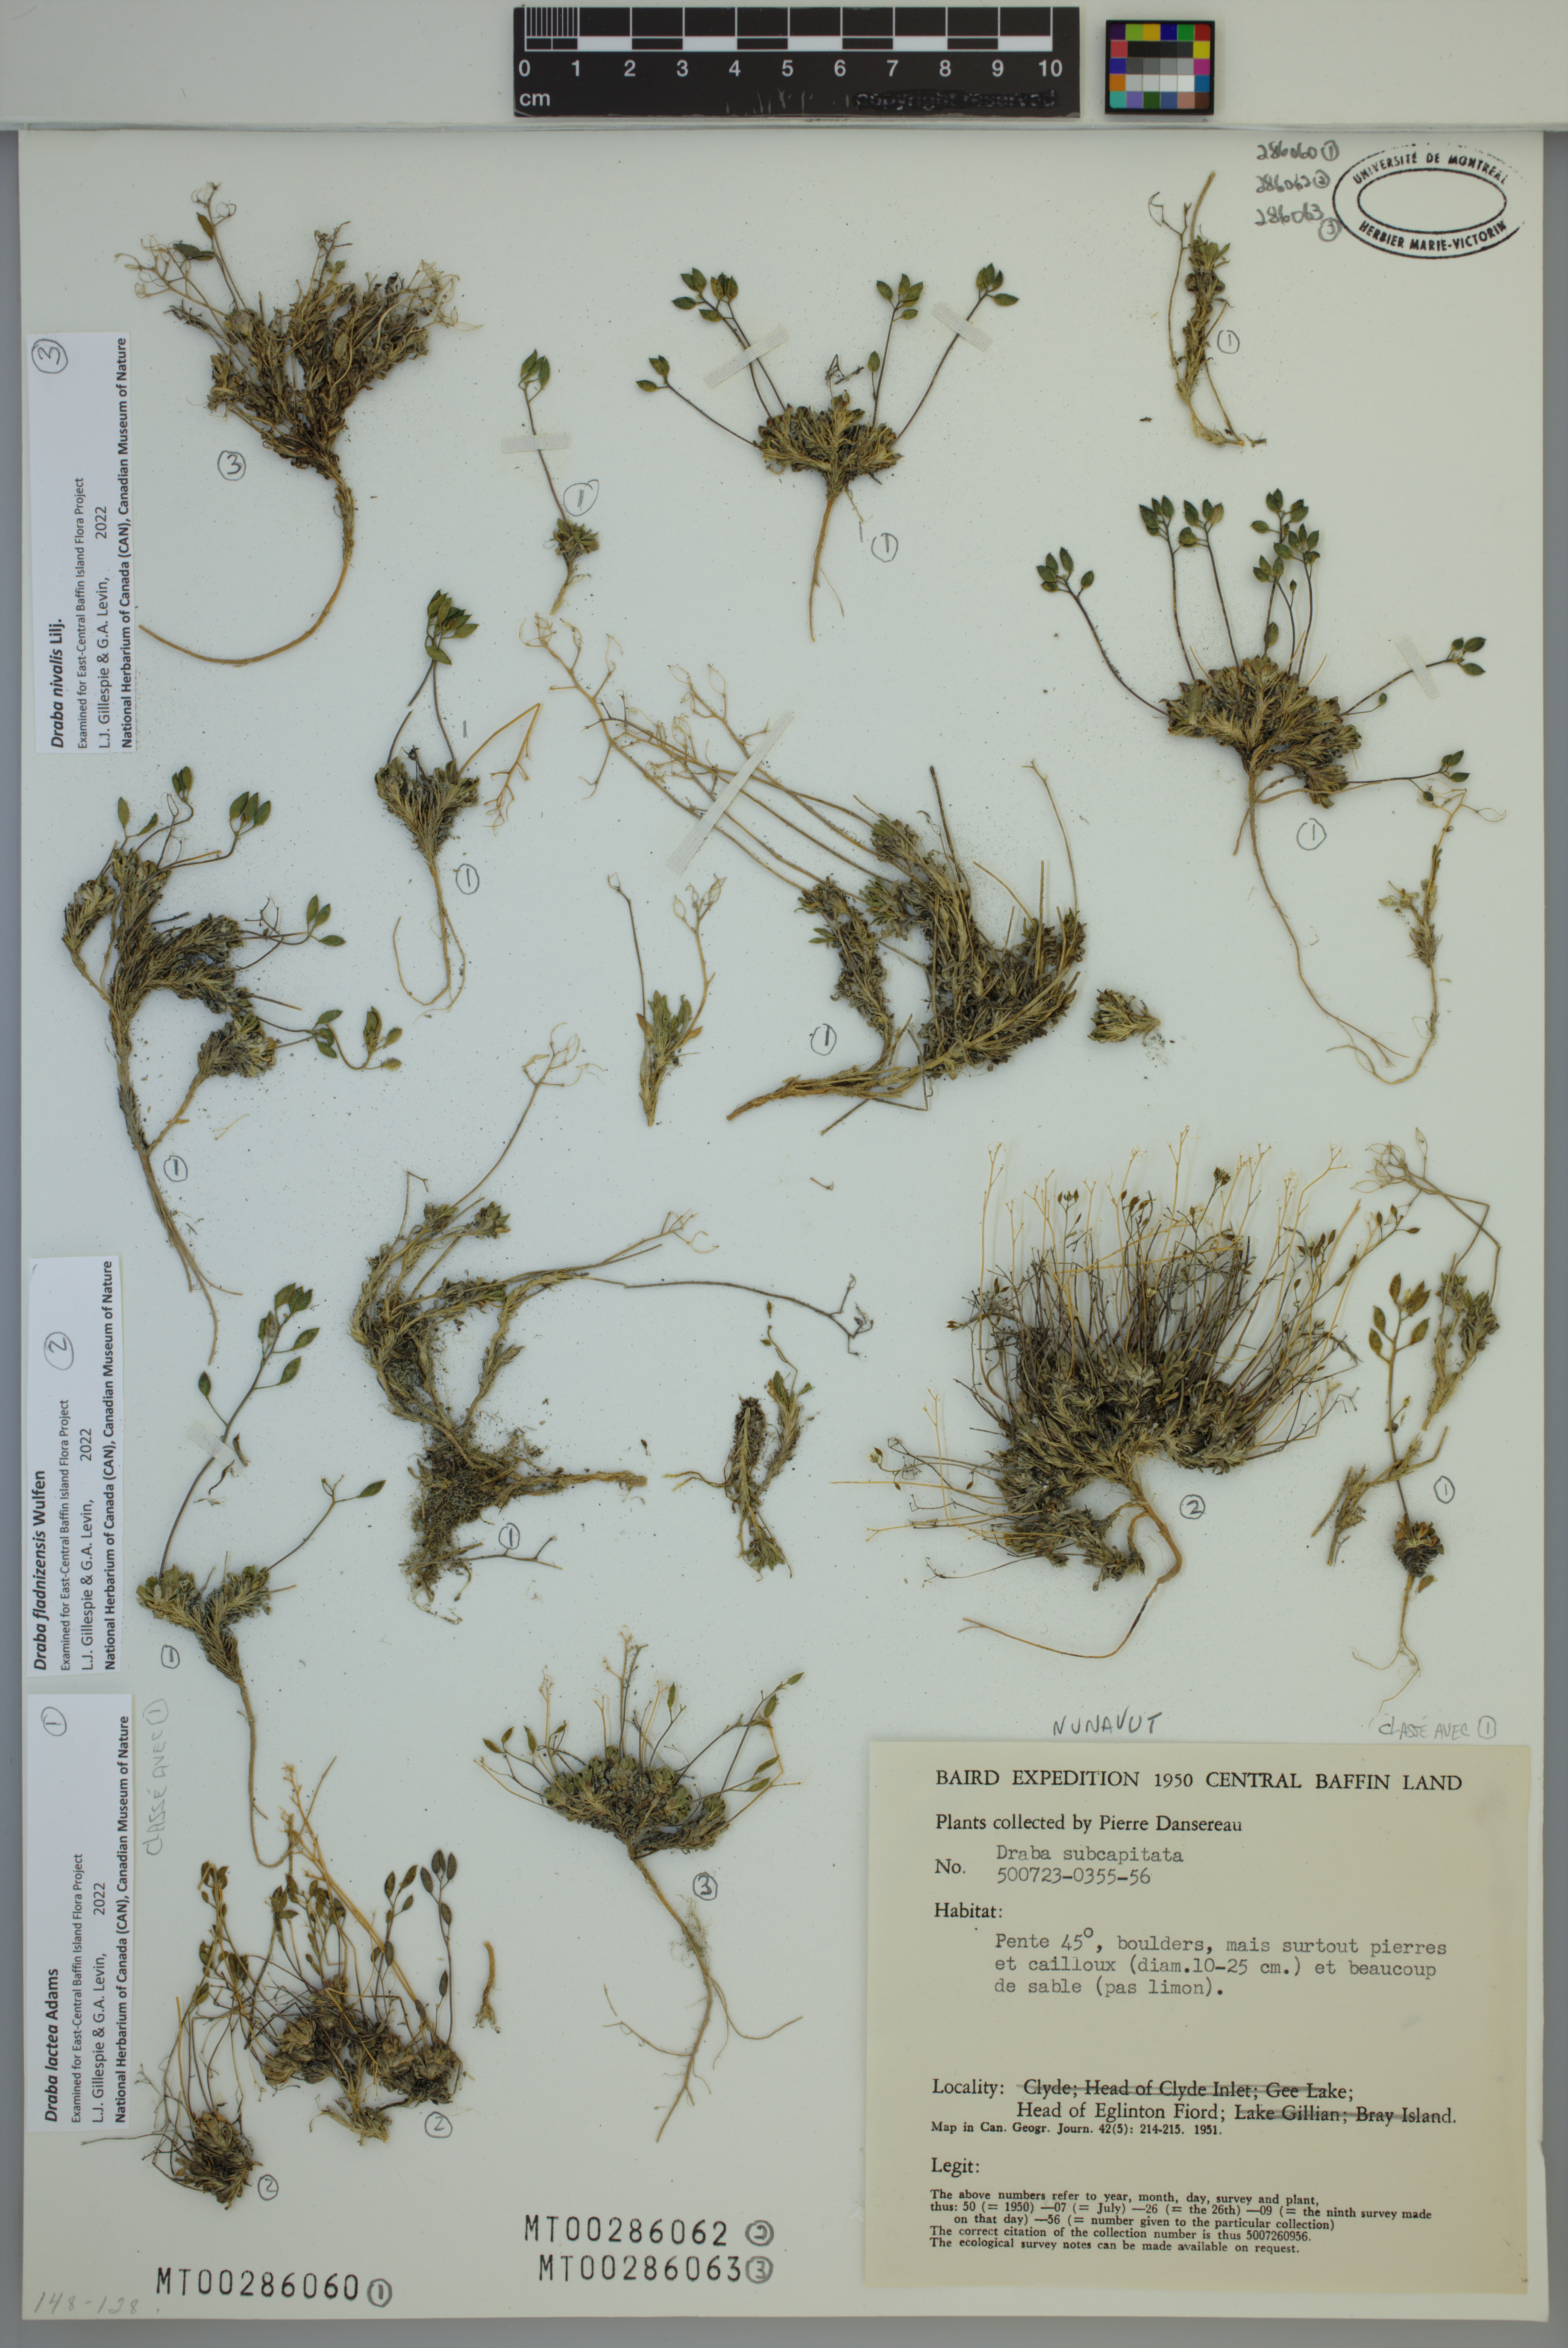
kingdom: Plantae
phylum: Tracheophyta
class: Magnoliopsida
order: Brassicales
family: Brassicaceae
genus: Draba
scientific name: Draba lactea
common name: Milky draba
